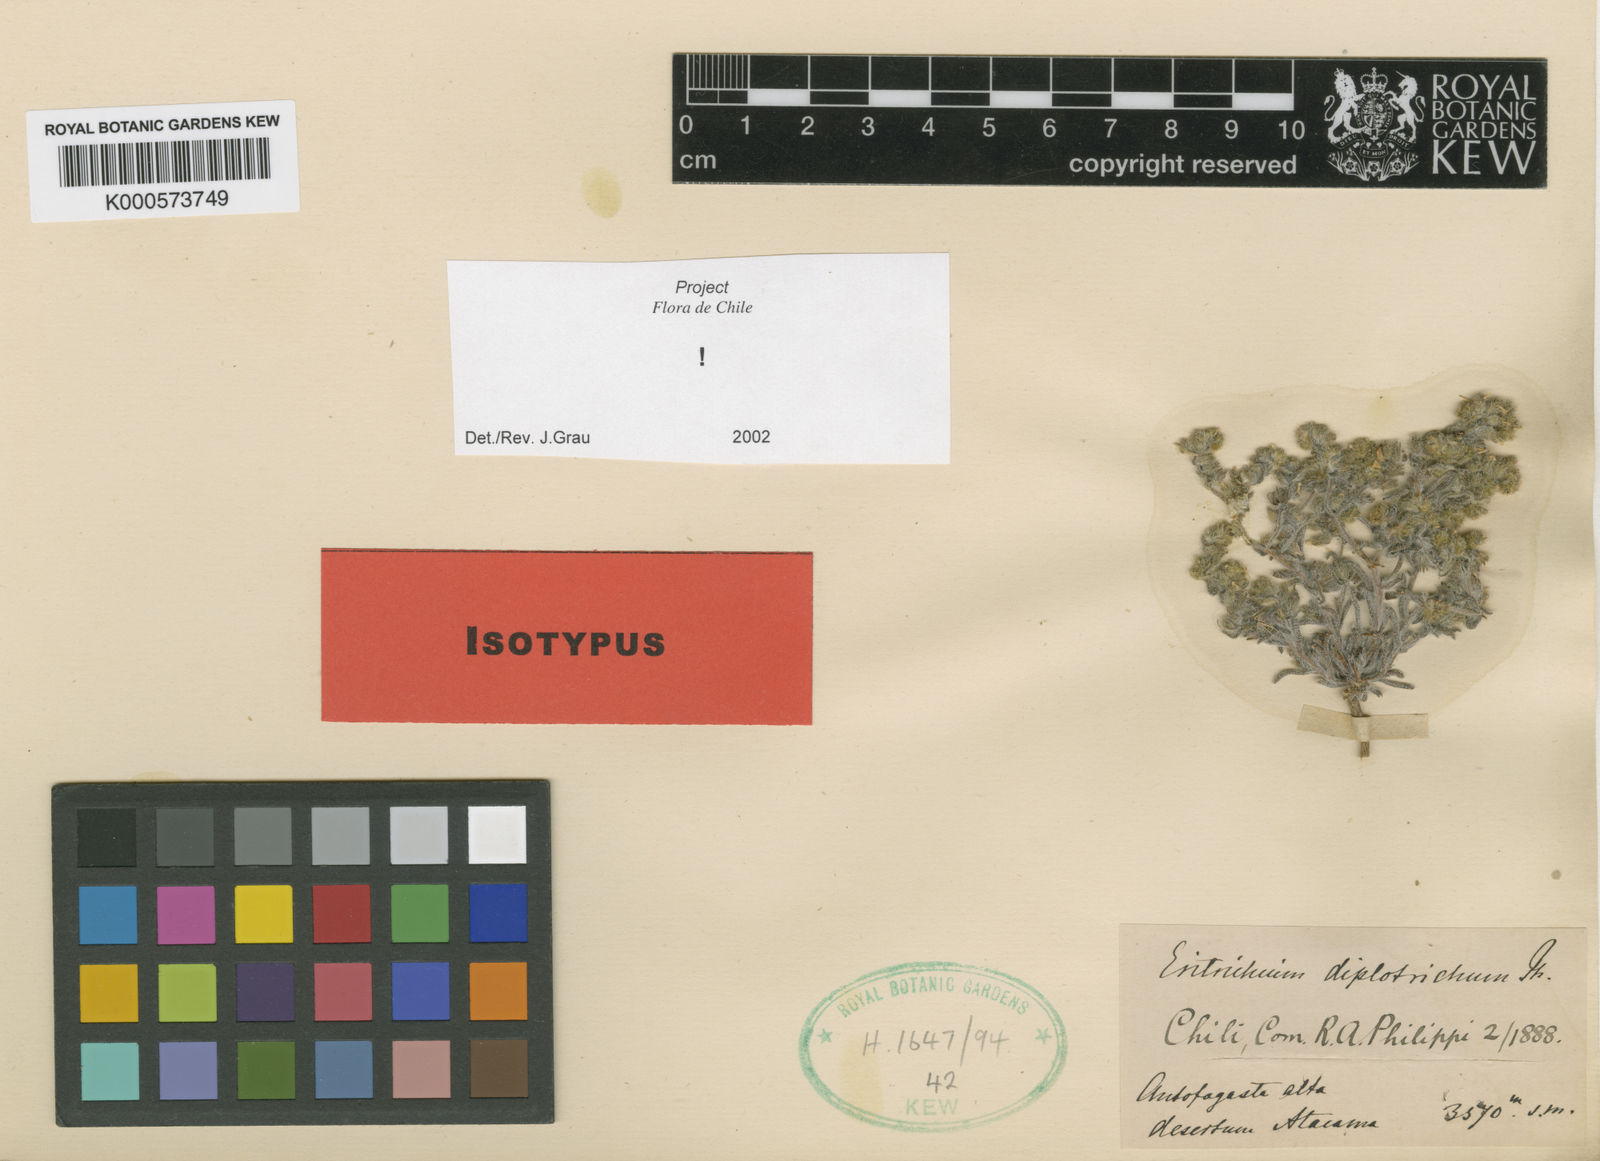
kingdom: Plantae
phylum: Tracheophyta
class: Magnoliopsida
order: Boraginales
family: Boraginaceae
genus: Johnstonella
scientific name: Johnstonella diplotricha
